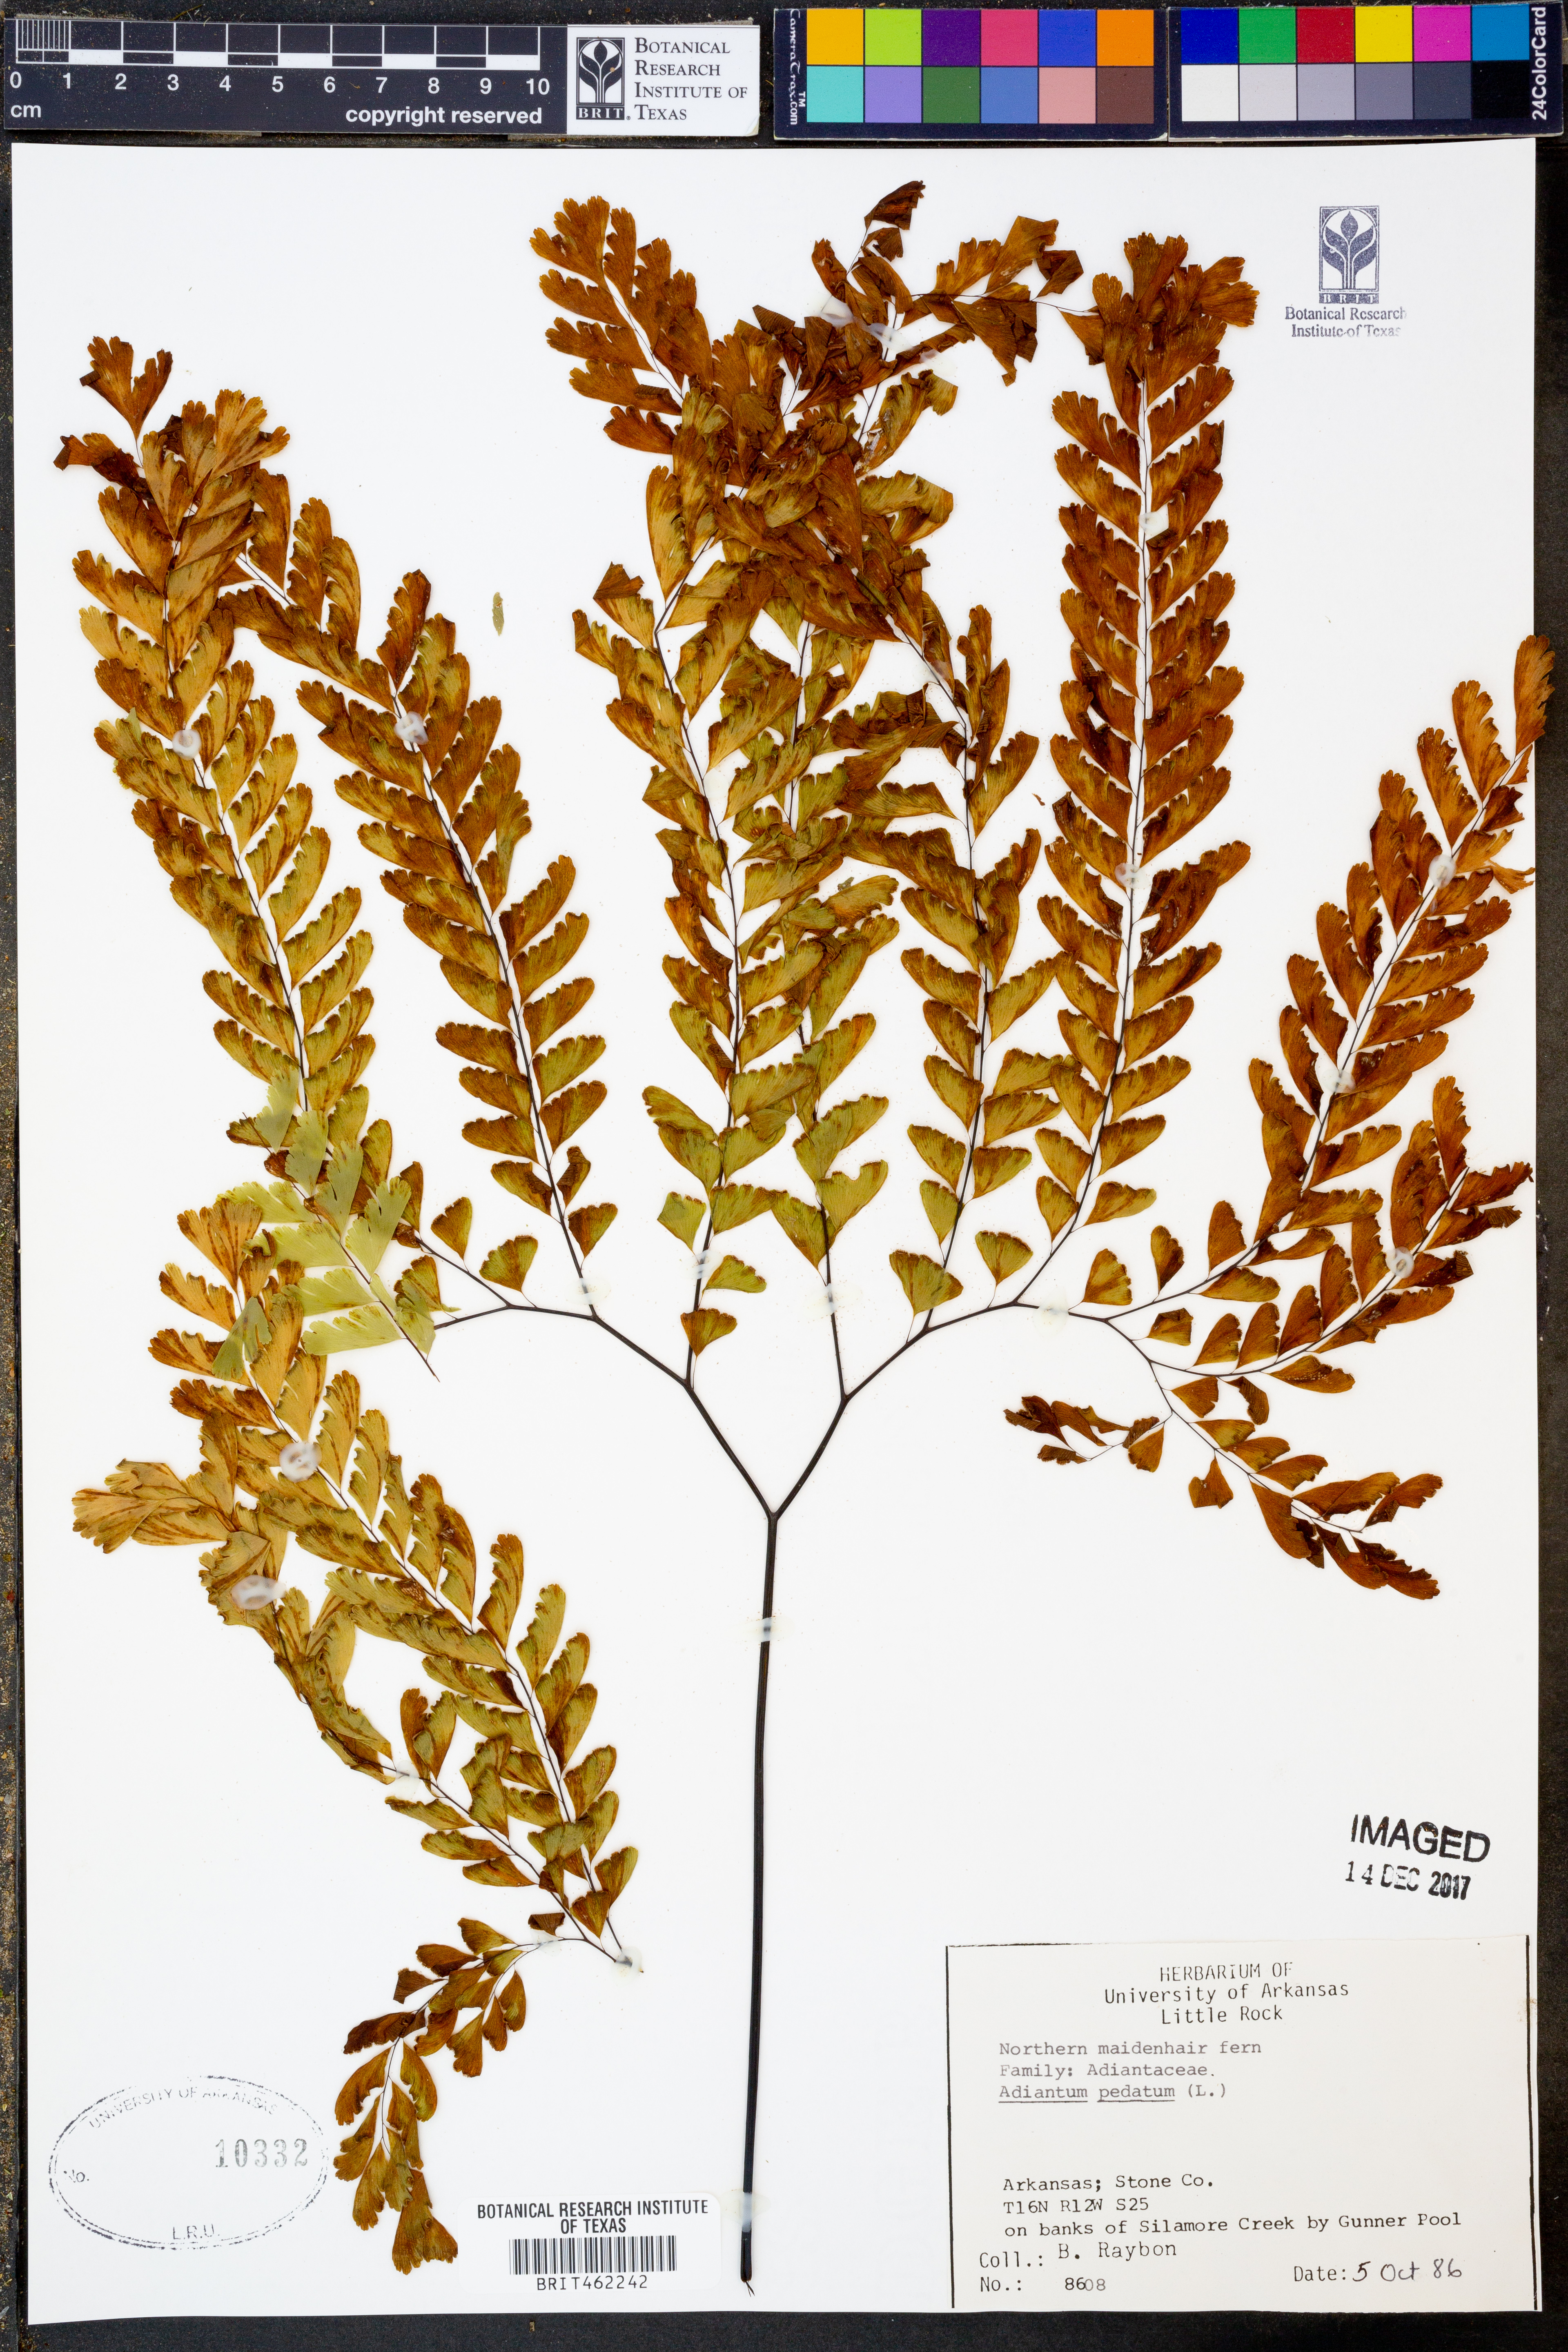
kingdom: Plantae
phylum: Tracheophyta
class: Polypodiopsida
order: Polypodiales
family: Pteridaceae
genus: Adiantum
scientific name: Adiantum pedatum
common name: Five-finger fern
